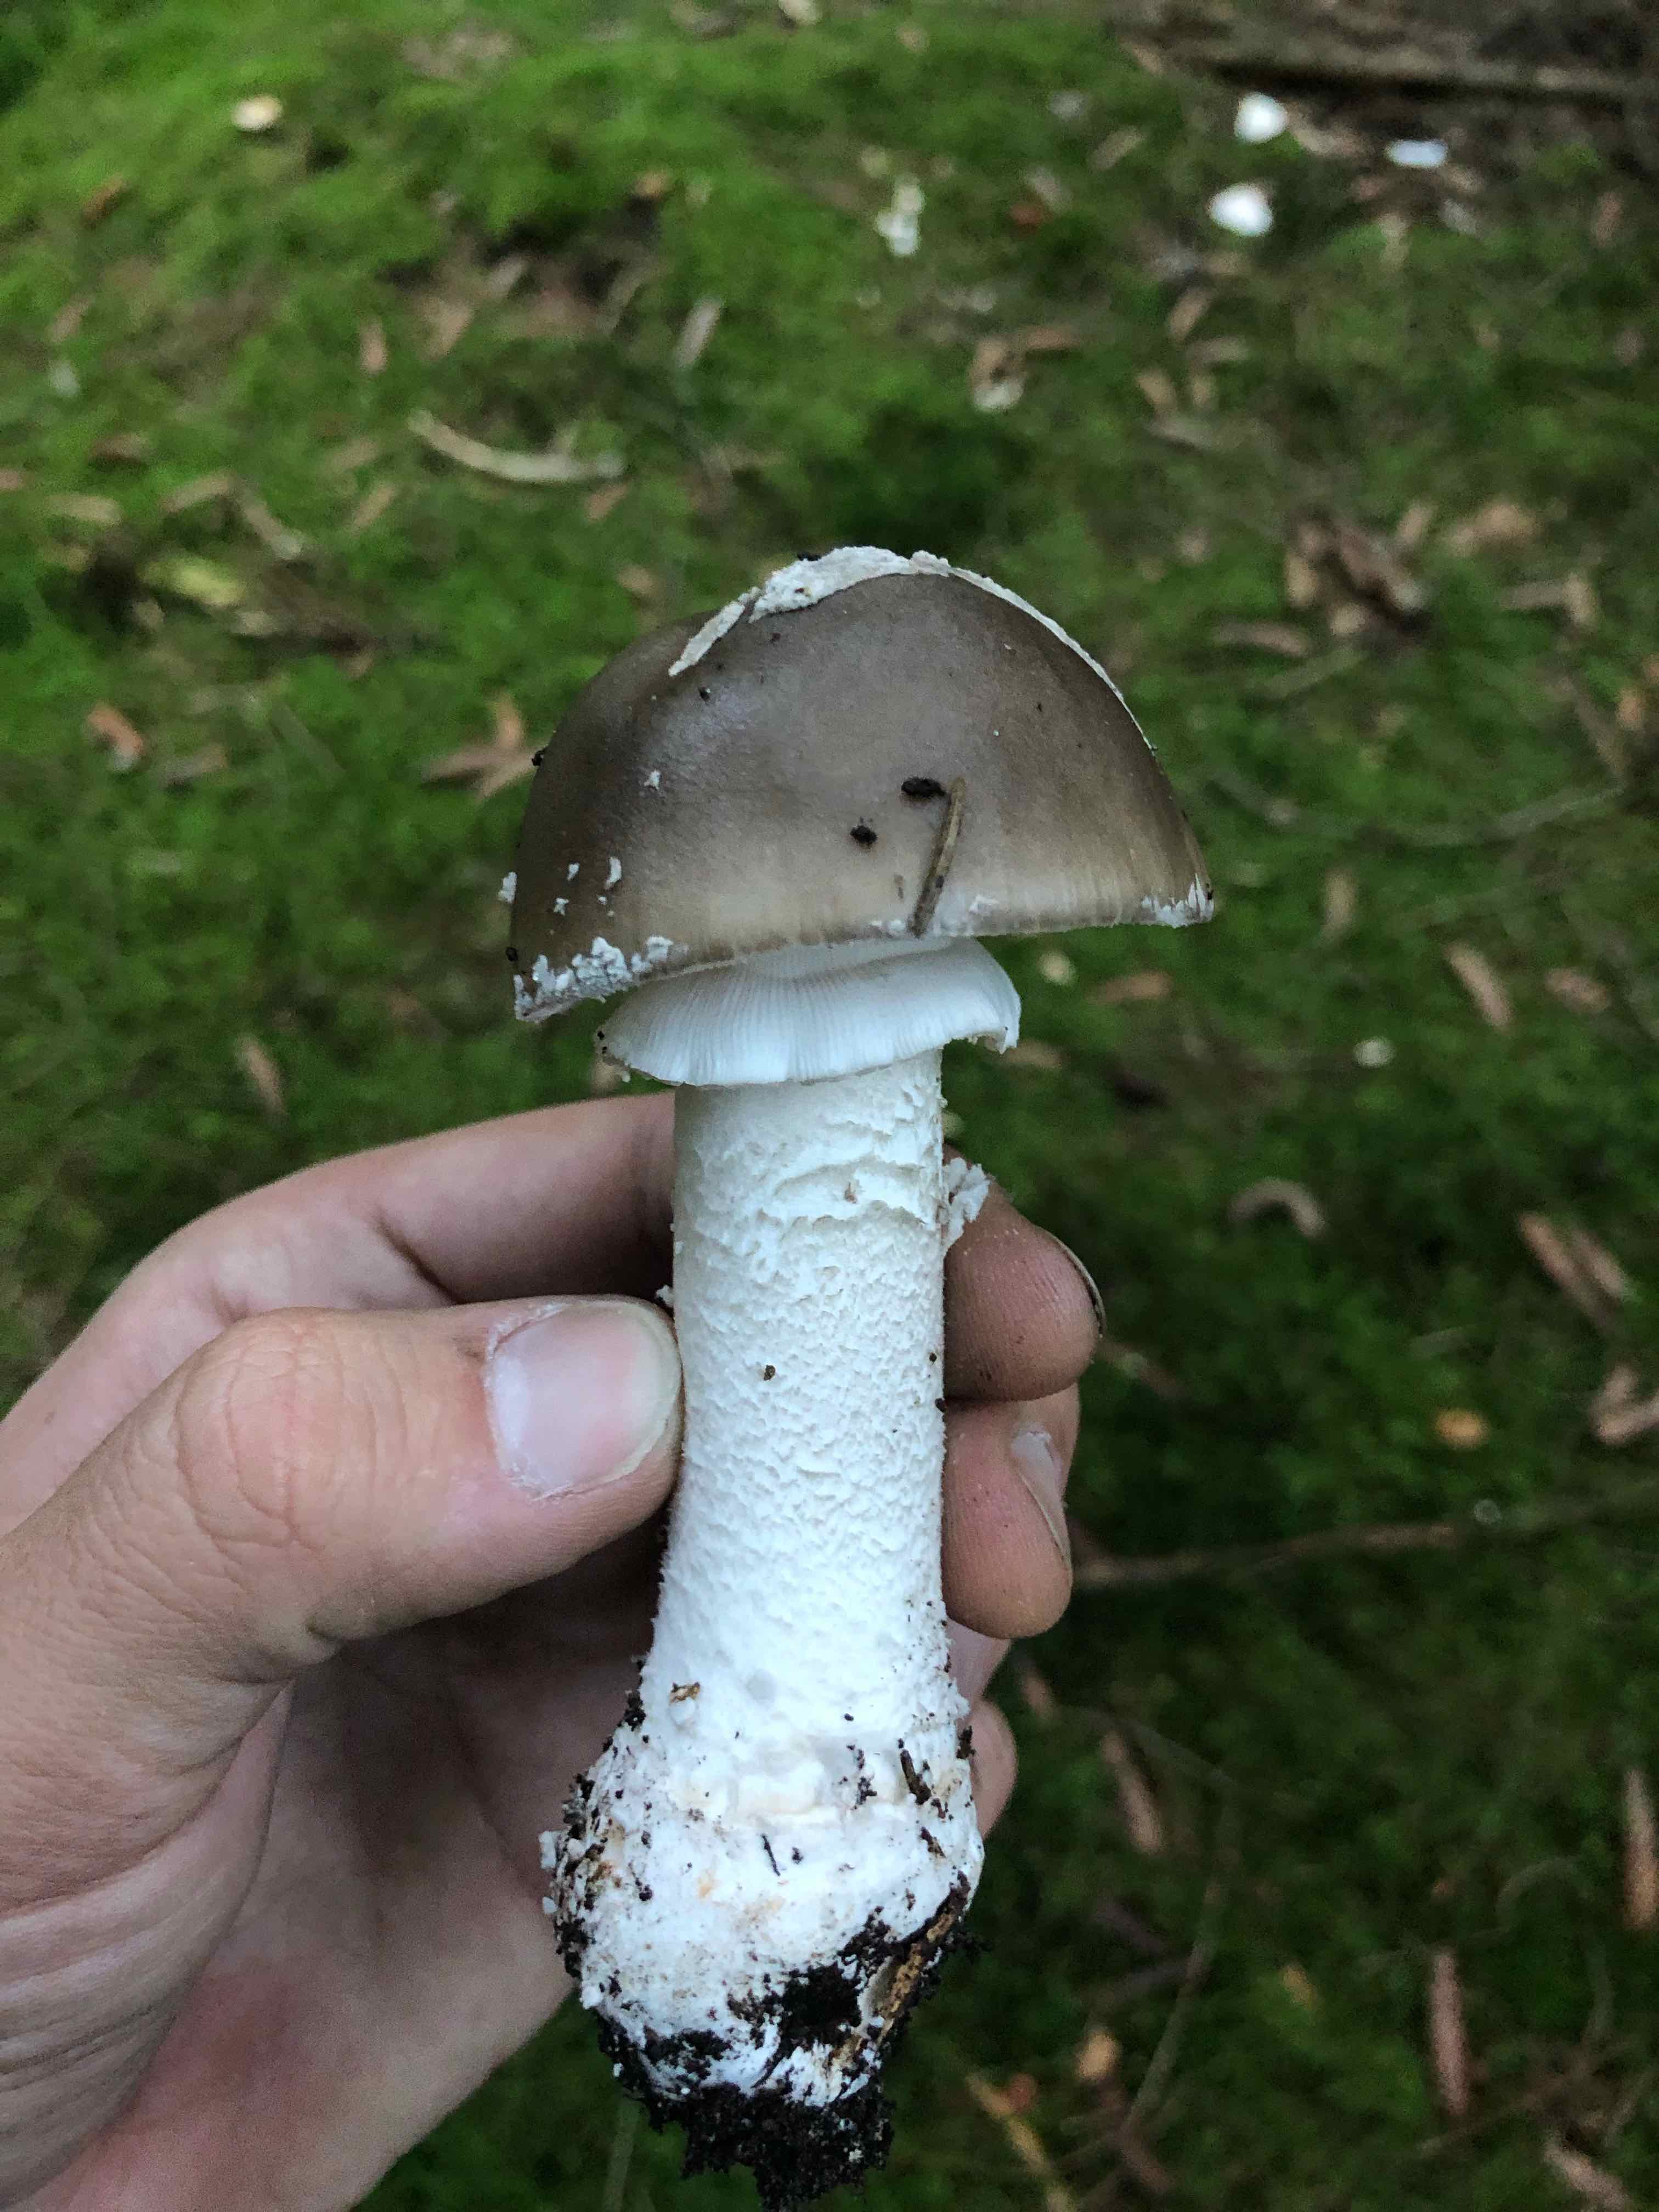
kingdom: Fungi
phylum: Basidiomycota
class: Agaricomycetes
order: Agaricales
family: Amanitaceae
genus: Amanita
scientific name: Amanita
